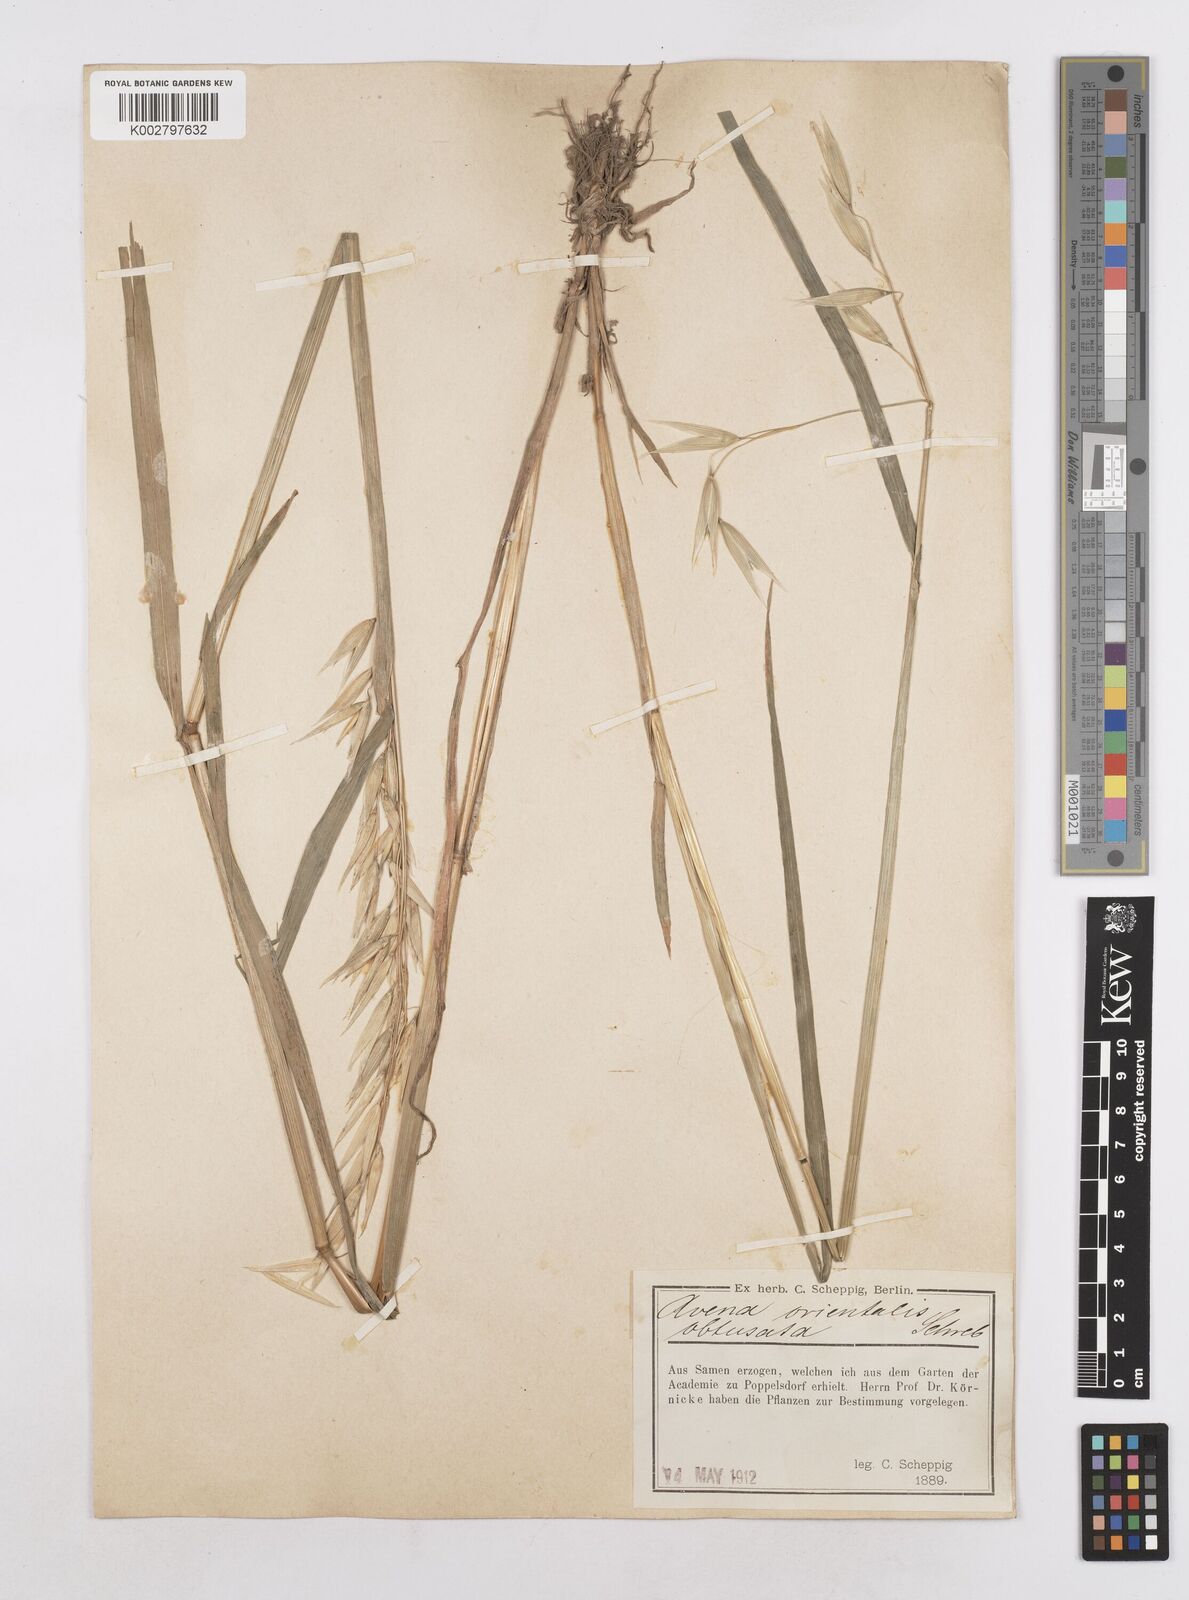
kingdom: Plantae
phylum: Tracheophyta
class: Liliopsida
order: Poales
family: Poaceae
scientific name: Poaceae
